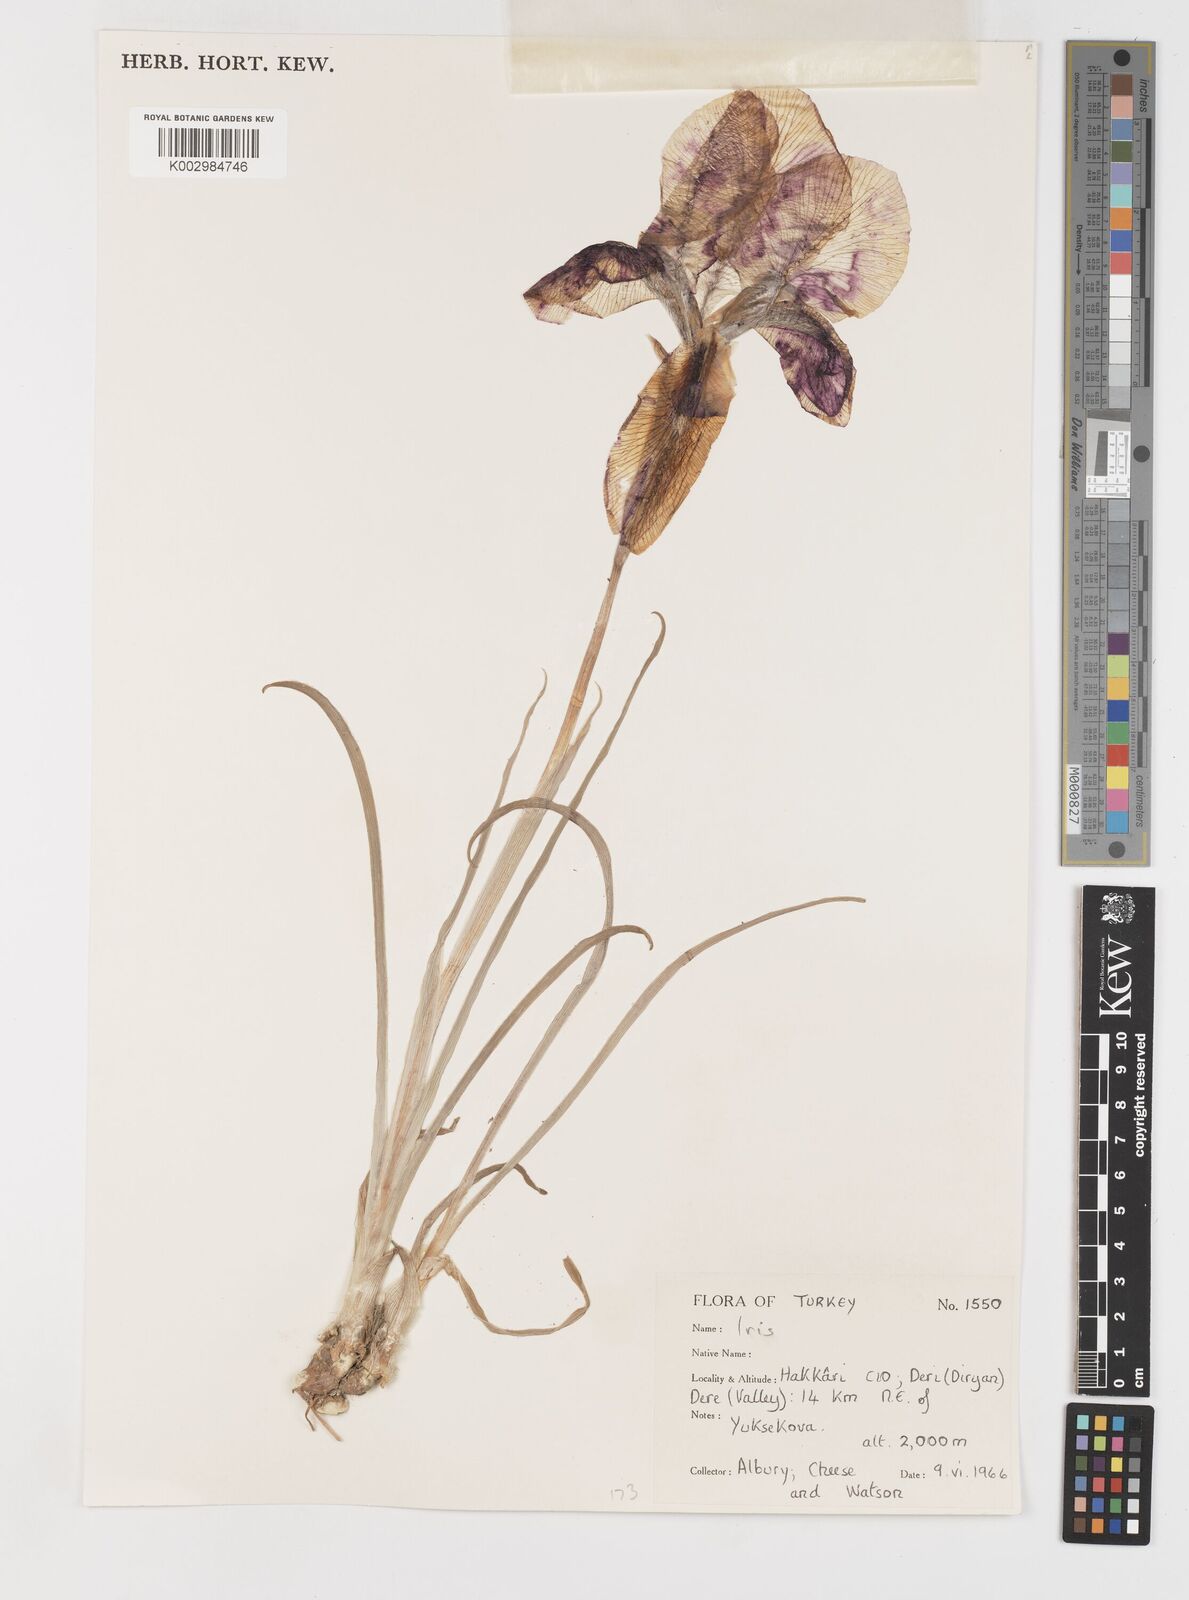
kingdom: Plantae
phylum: Tracheophyta
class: Liliopsida
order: Asparagales
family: Iridaceae
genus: Iris
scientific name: Iris barnumiae
